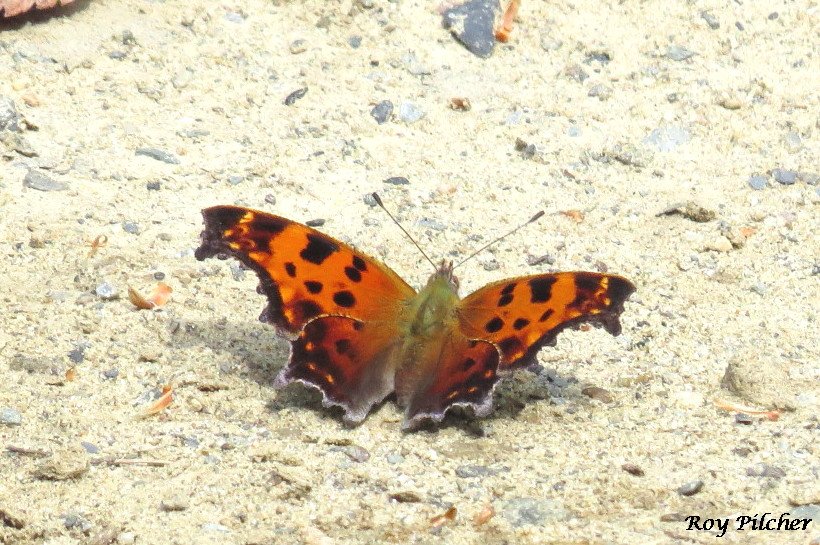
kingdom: Animalia
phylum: Arthropoda
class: Insecta
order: Lepidoptera
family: Nymphalidae
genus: Polygonia
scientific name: Polygonia comma
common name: Eastern Comma
